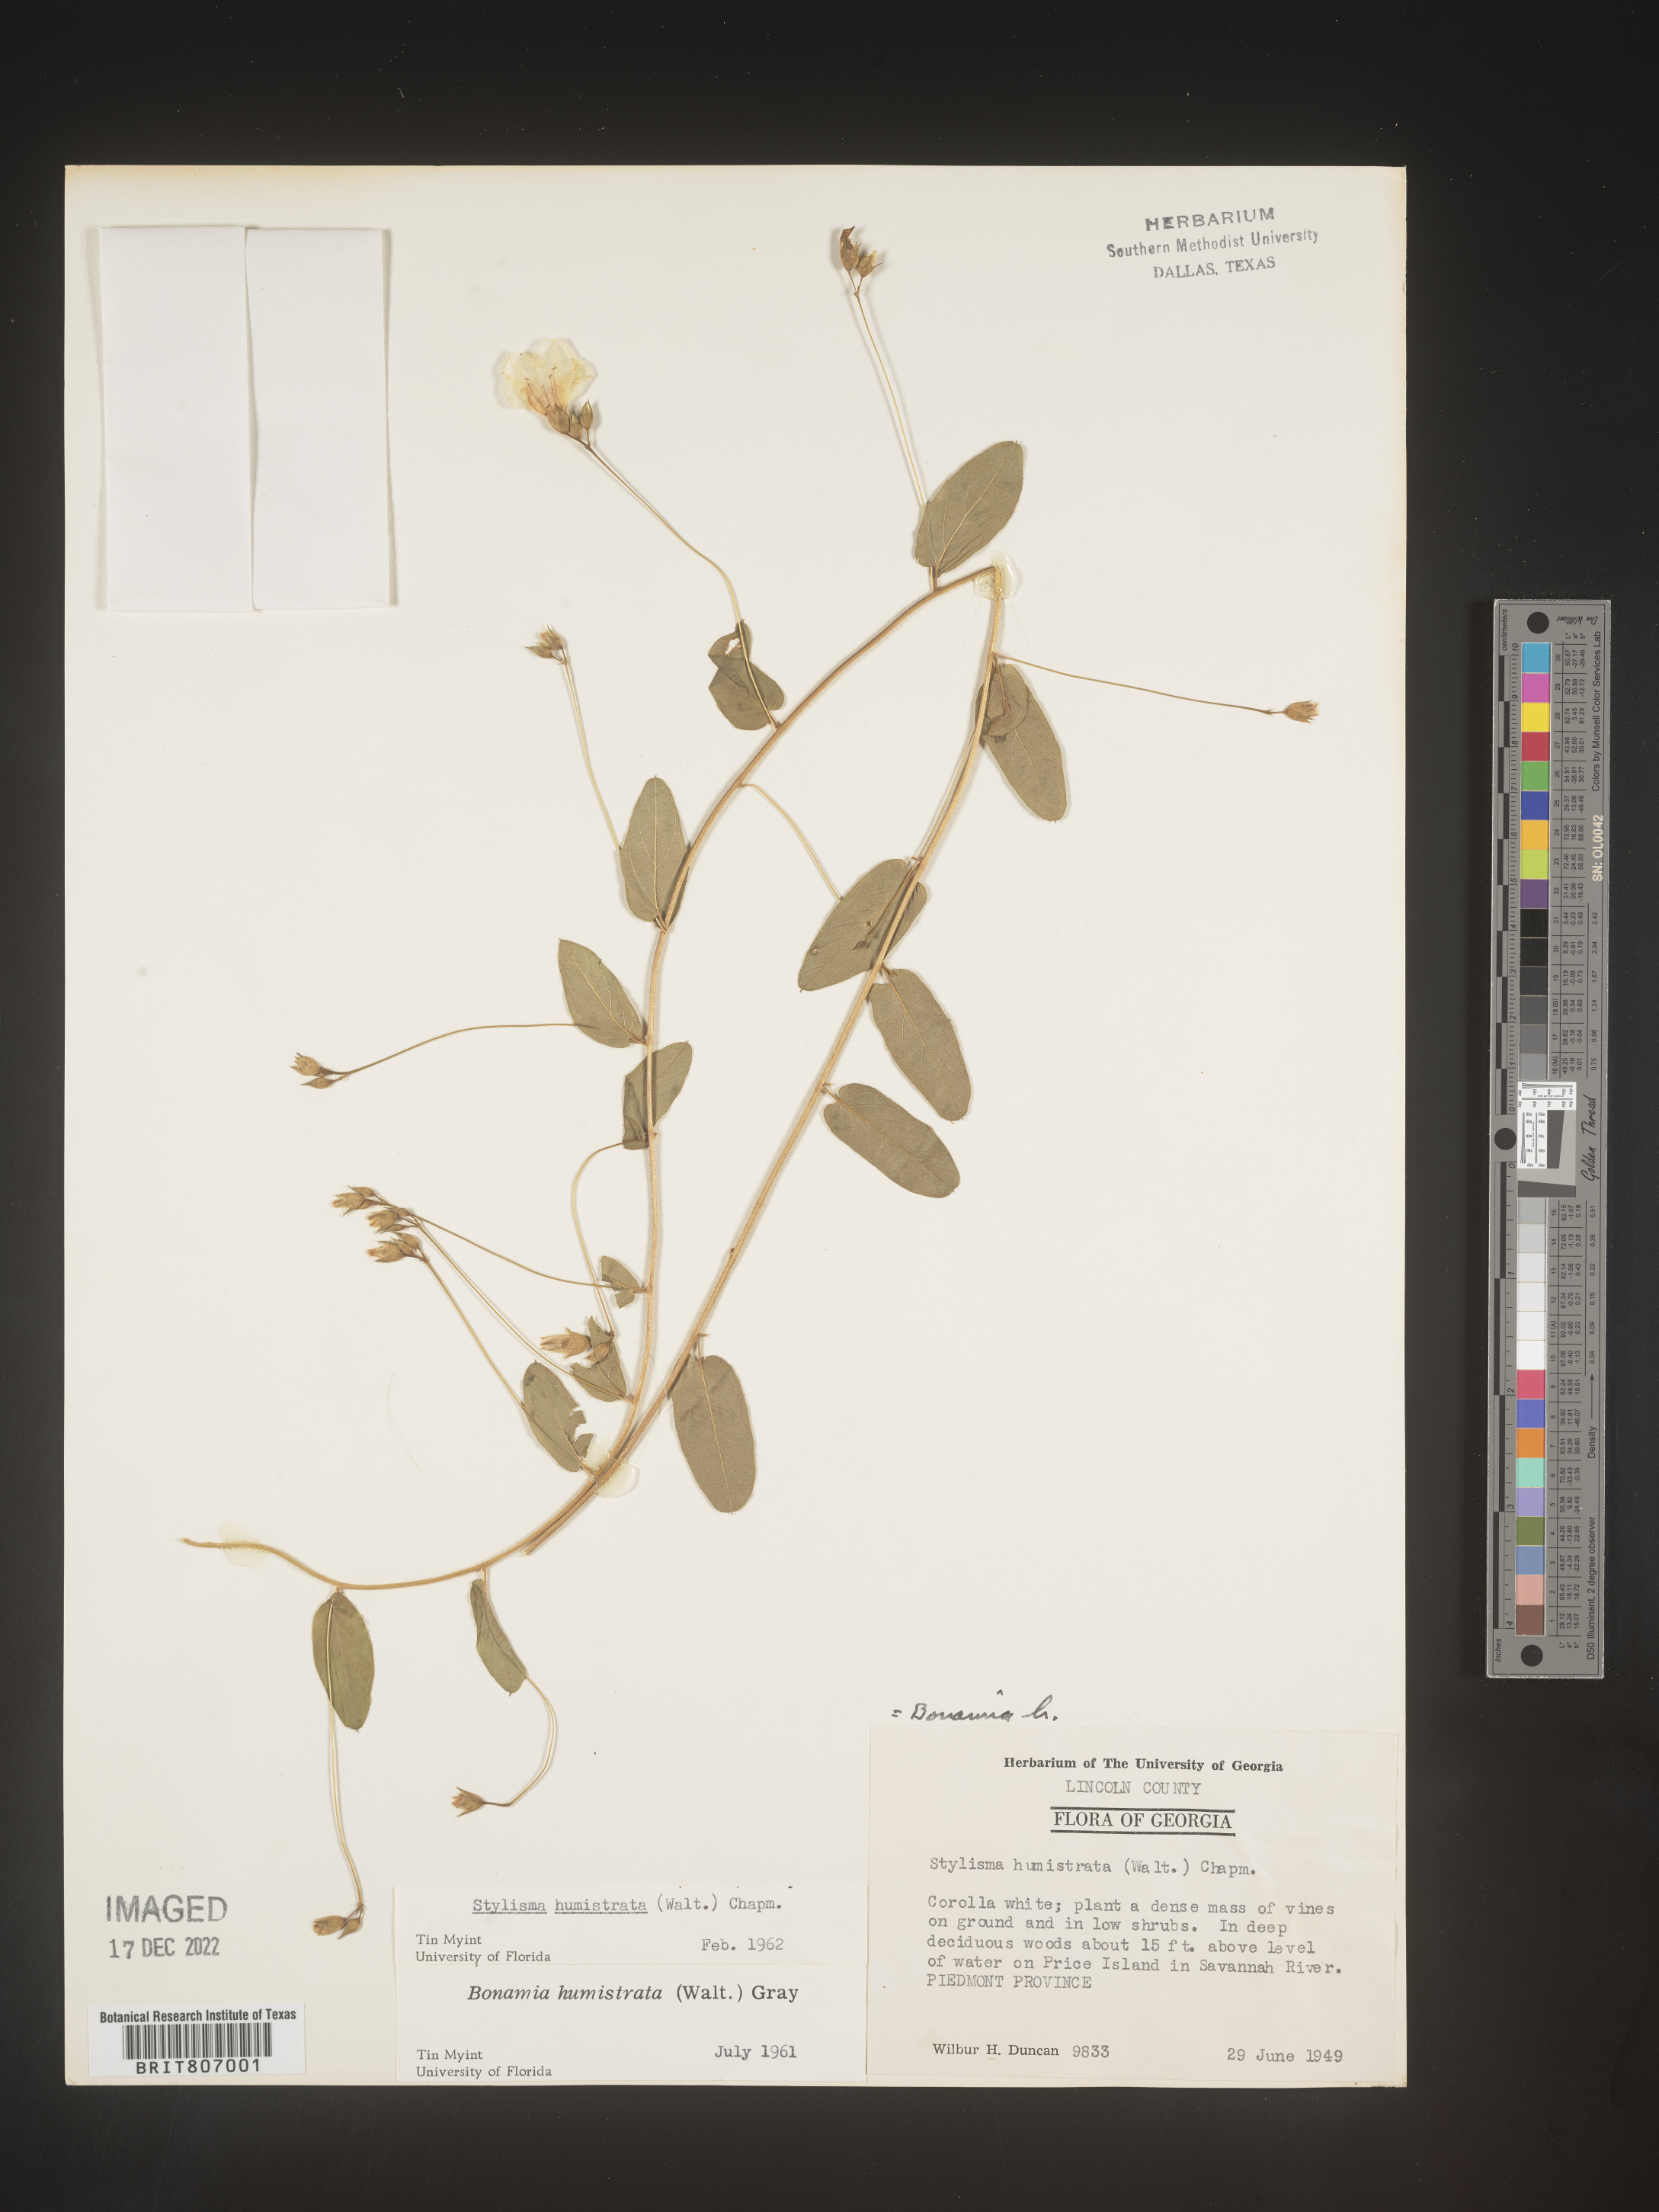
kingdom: Plantae
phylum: Tracheophyta
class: Magnoliopsida
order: Solanales
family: Convolvulaceae
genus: Stylisma
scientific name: Stylisma humistrata
